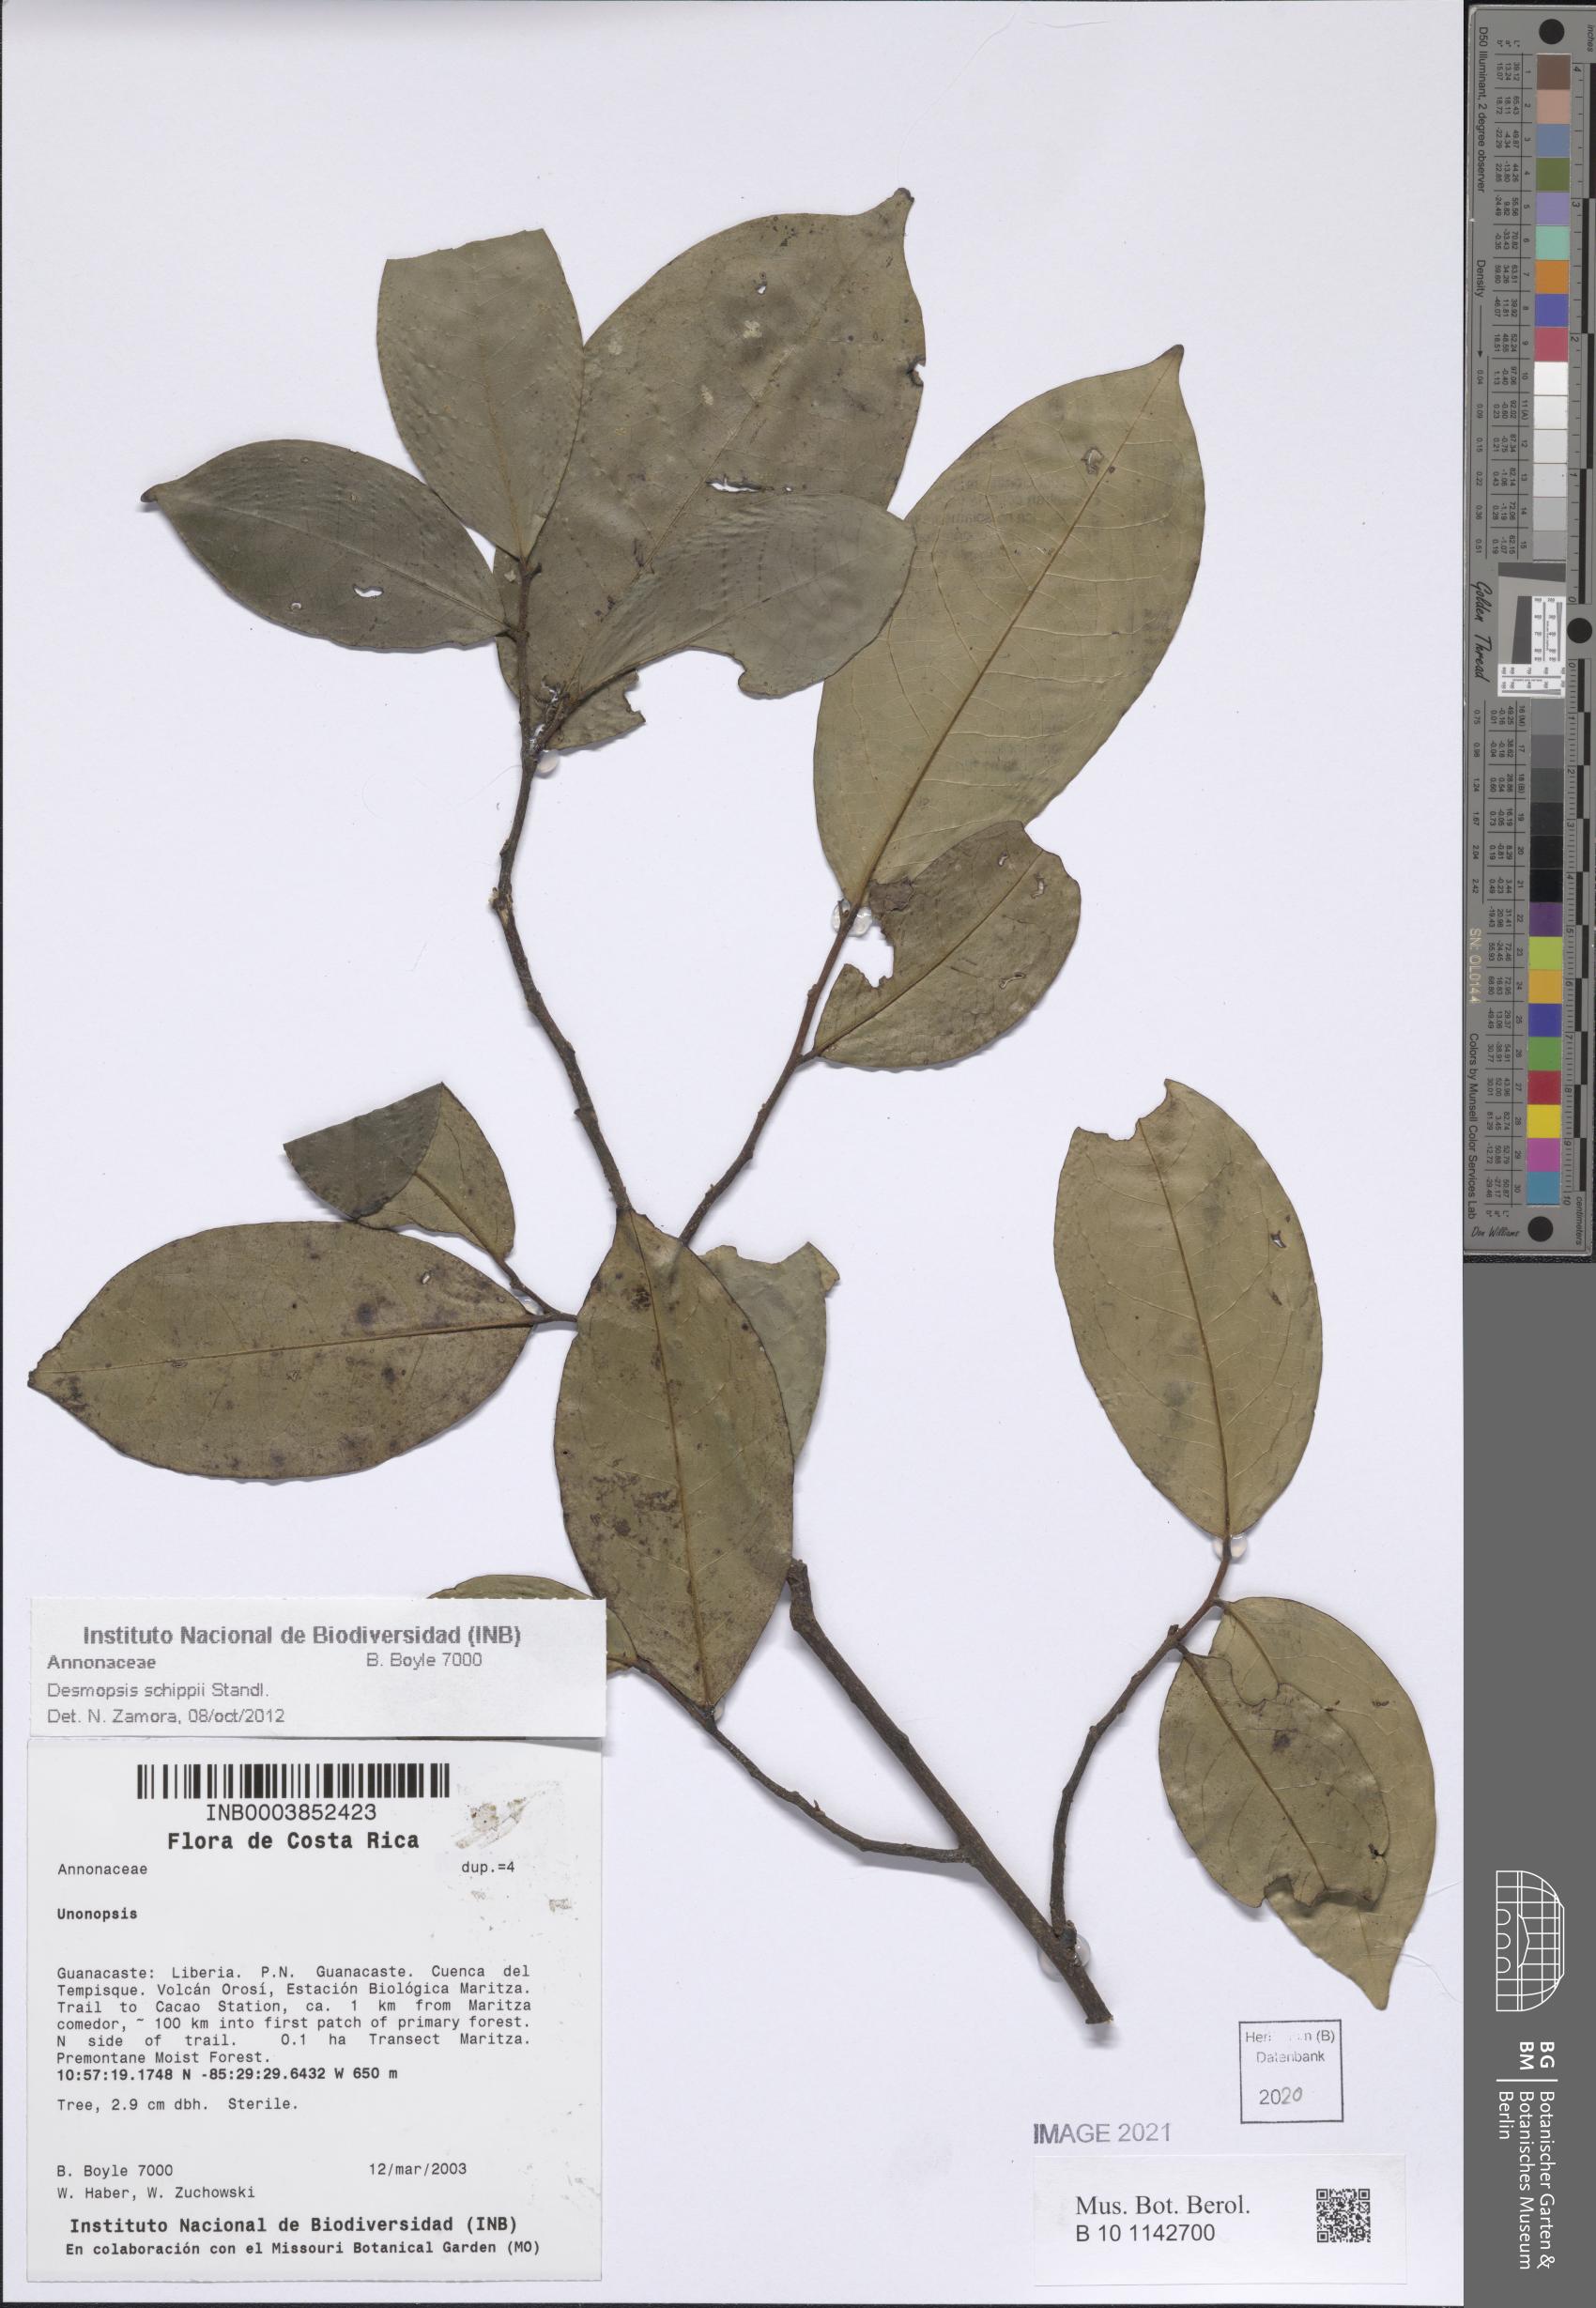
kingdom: Plantae
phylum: Tracheophyta
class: Magnoliopsida
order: Magnoliales
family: Annonaceae
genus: Desmopsis
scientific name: Desmopsis schippii
